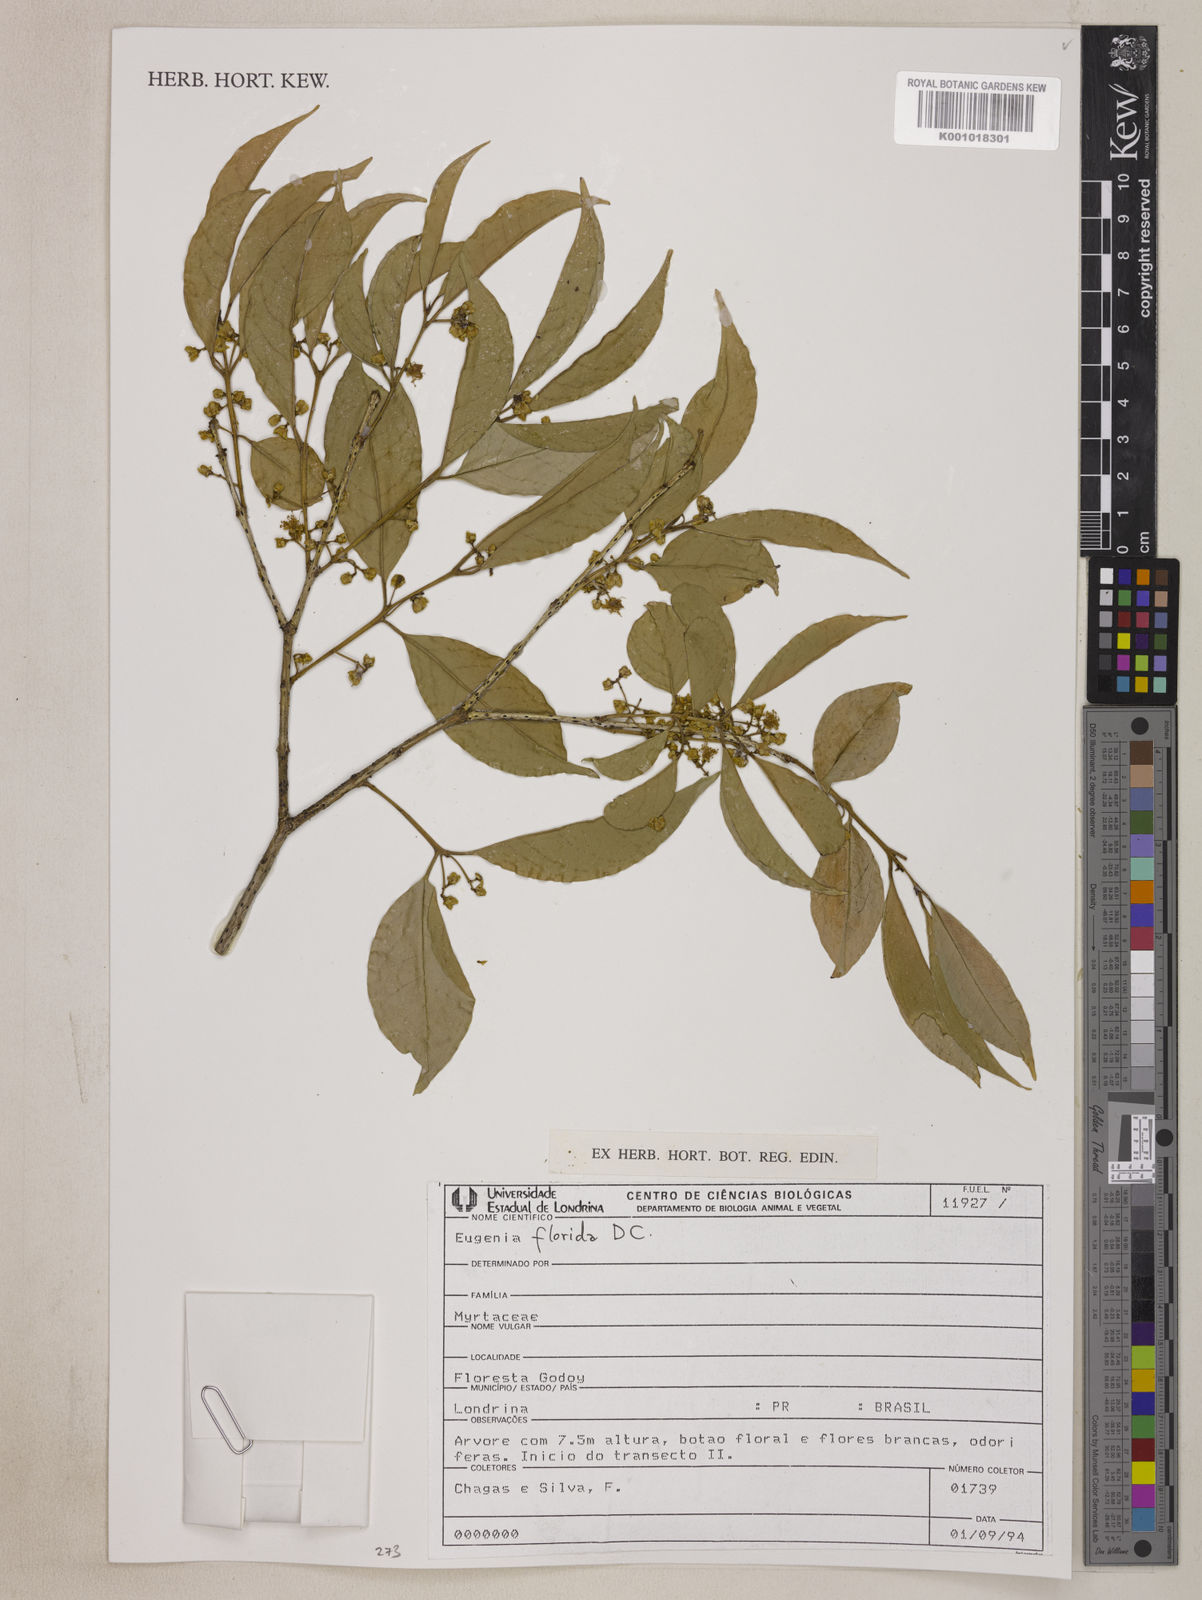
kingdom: Plantae
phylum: Tracheophyta
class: Magnoliopsida
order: Myrtales
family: Myrtaceae
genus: Eugenia
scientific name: Eugenia florida
